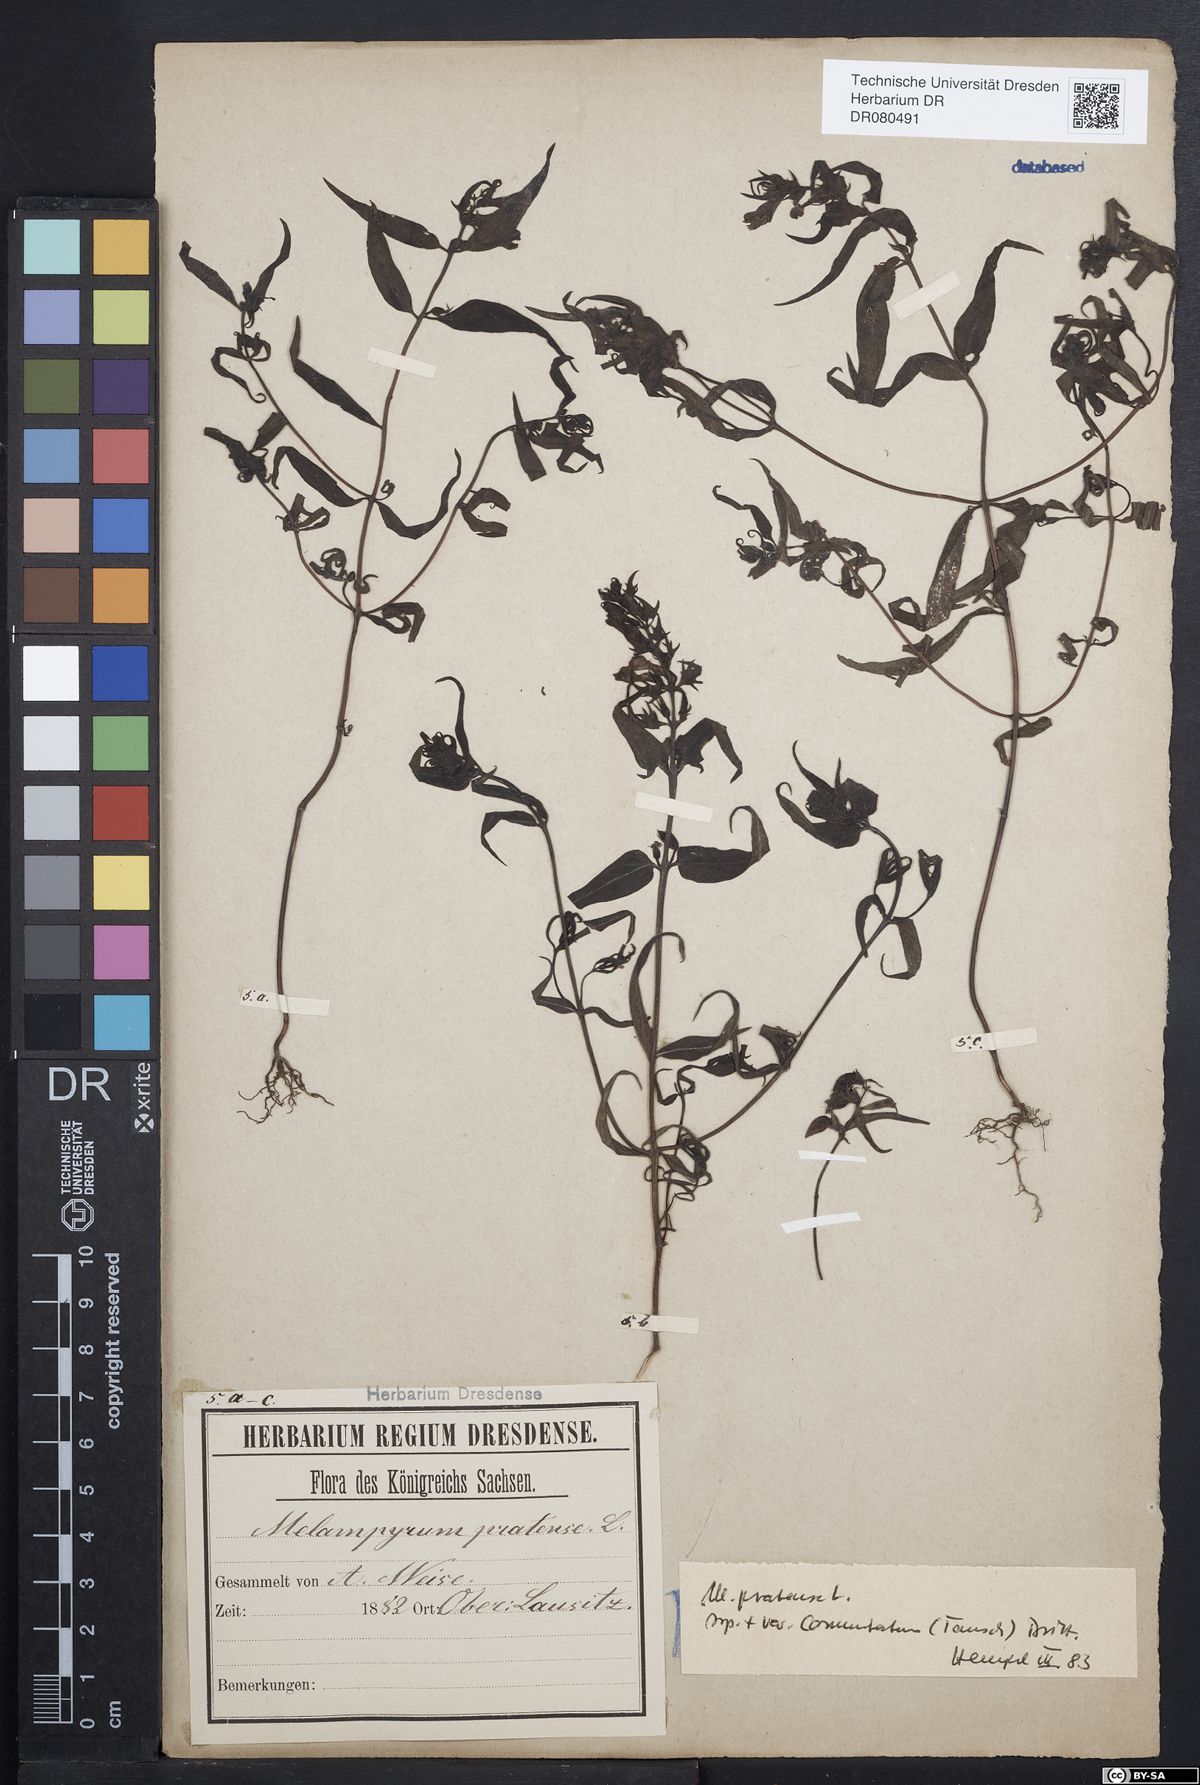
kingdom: Plantae
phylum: Tracheophyta
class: Magnoliopsida
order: Lamiales
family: Orobanchaceae
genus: Melampyrum
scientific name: Melampyrum pratense
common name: Common cow-wheat
